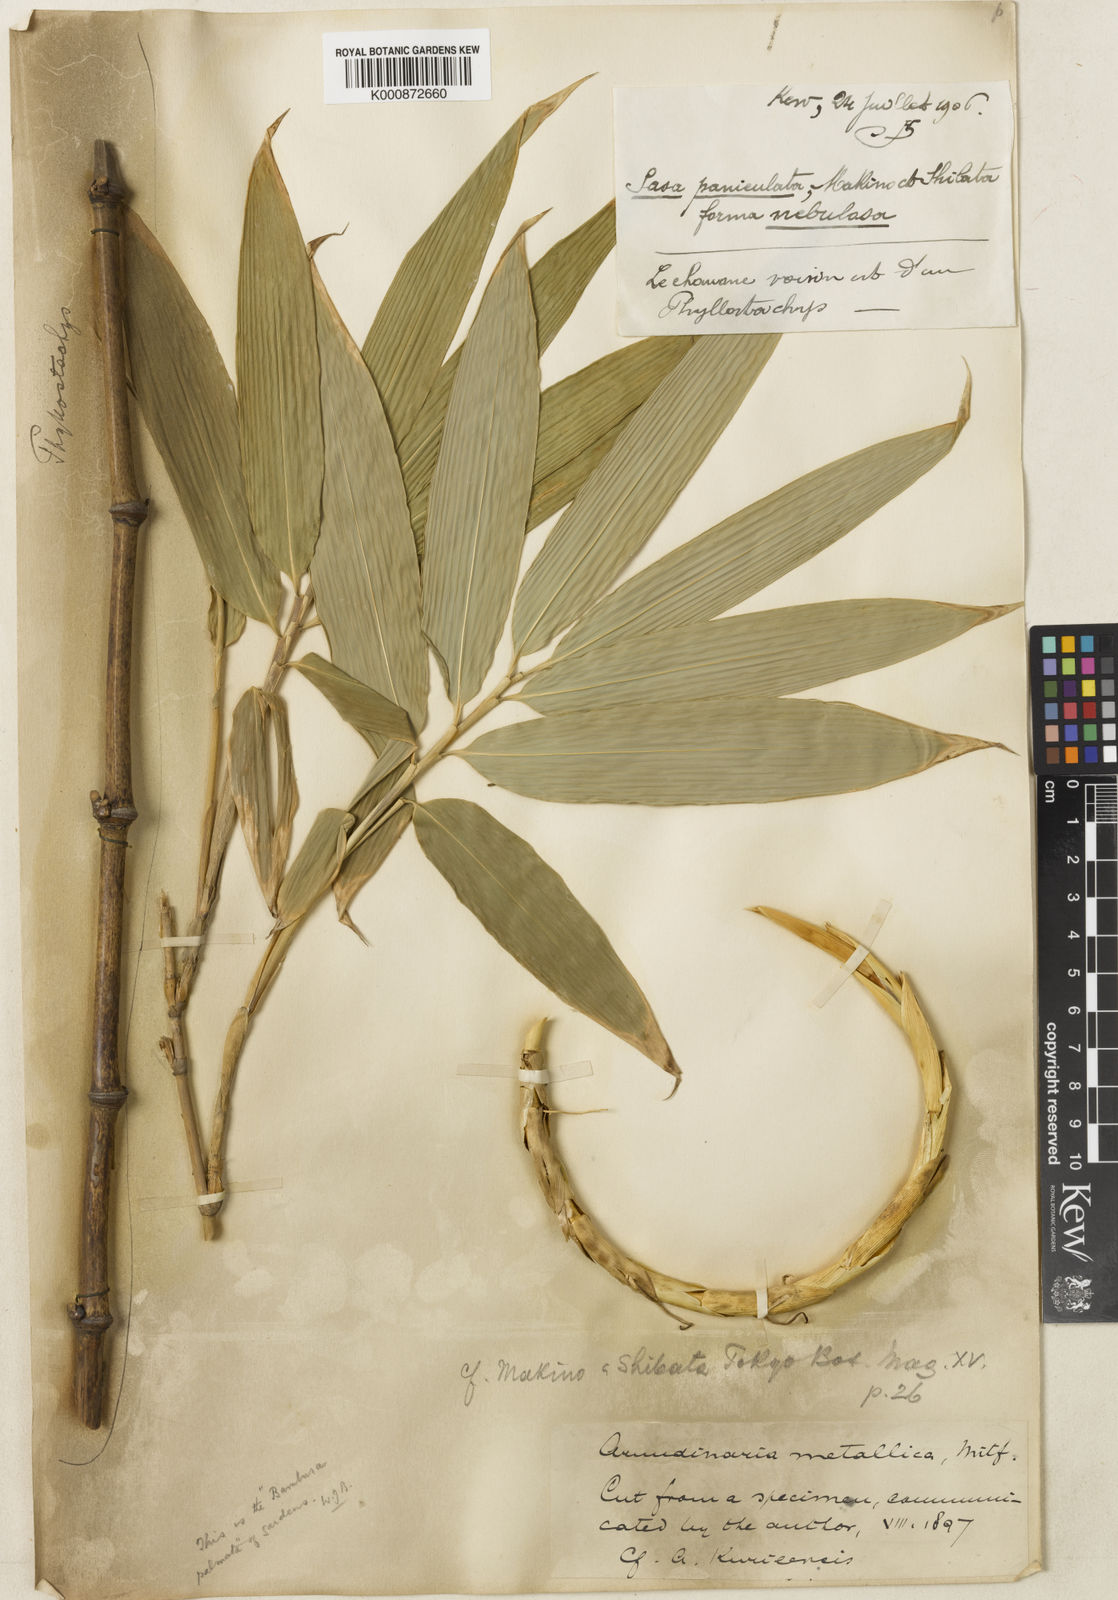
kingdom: Plantae
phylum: Tracheophyta
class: Liliopsida
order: Poales
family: Poaceae
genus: Sasa
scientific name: Sasa palmata
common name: Broad-leaved bamboo
